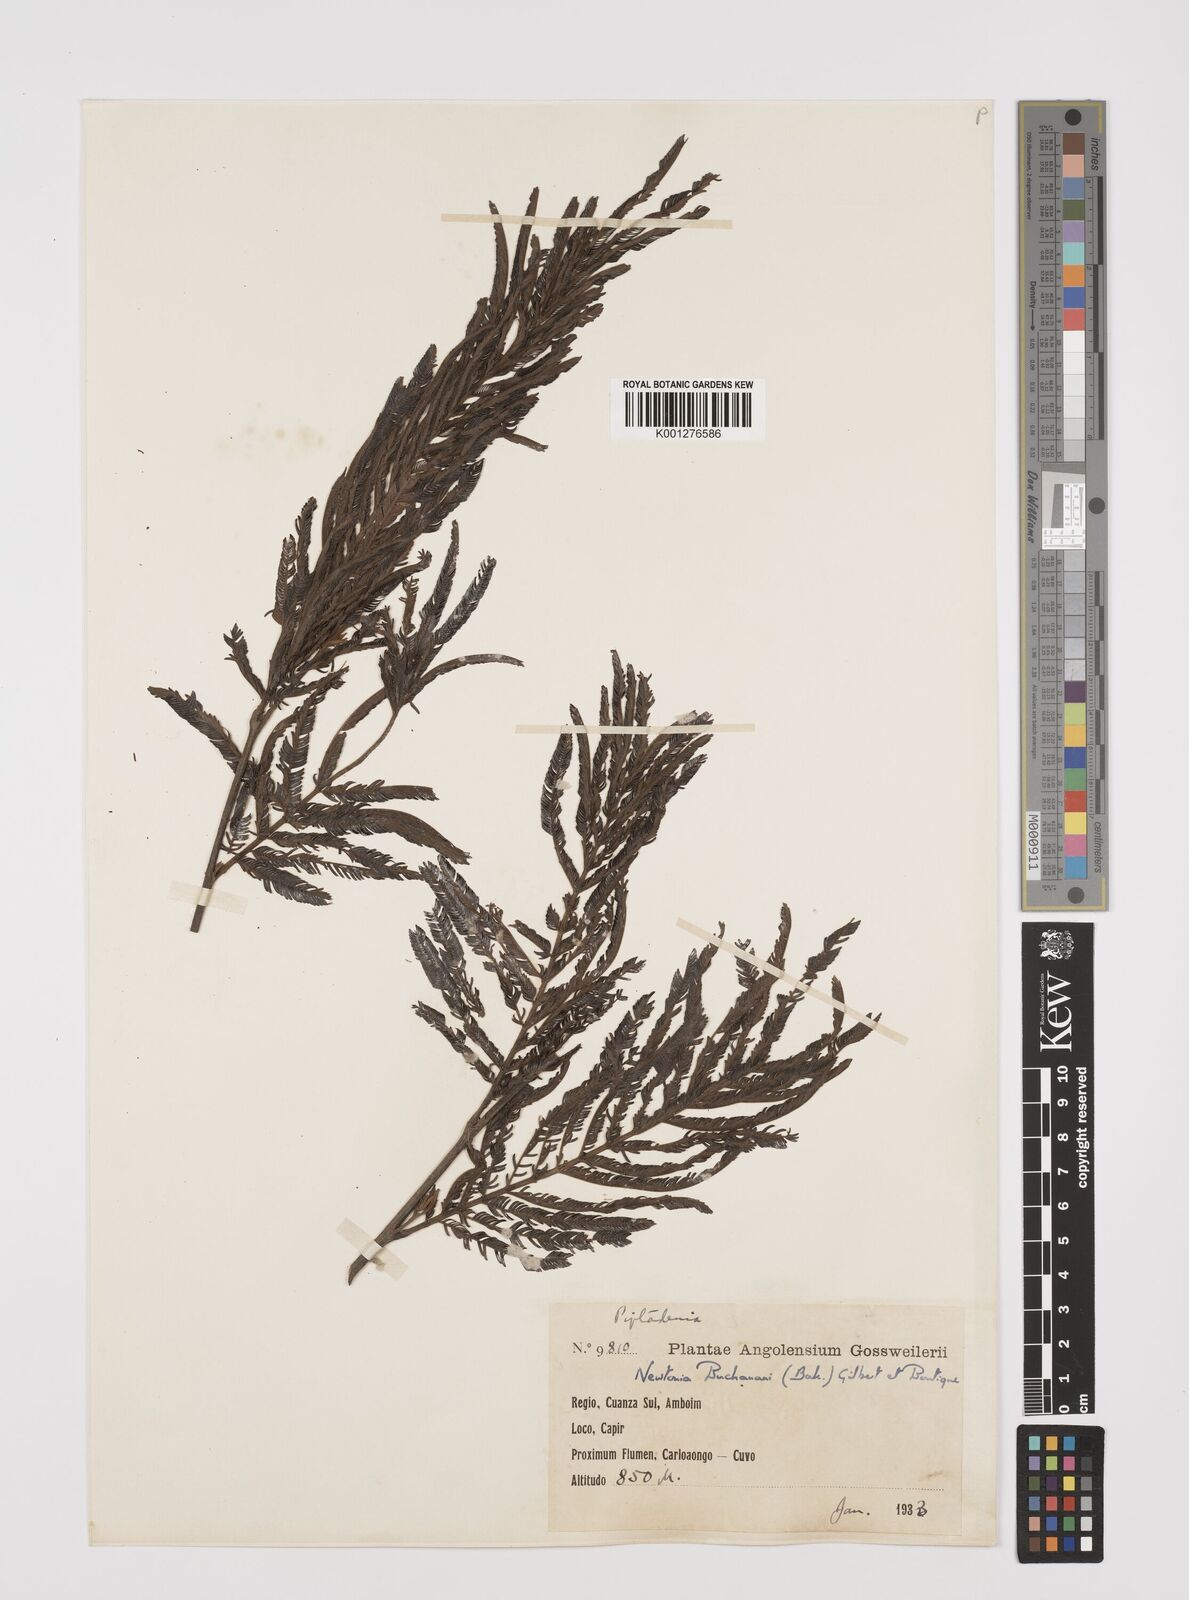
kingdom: Plantae
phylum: Tracheophyta
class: Magnoliopsida
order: Fabales
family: Fabaceae
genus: Newtonia
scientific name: Newtonia buchananii
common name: Forest newtonia
